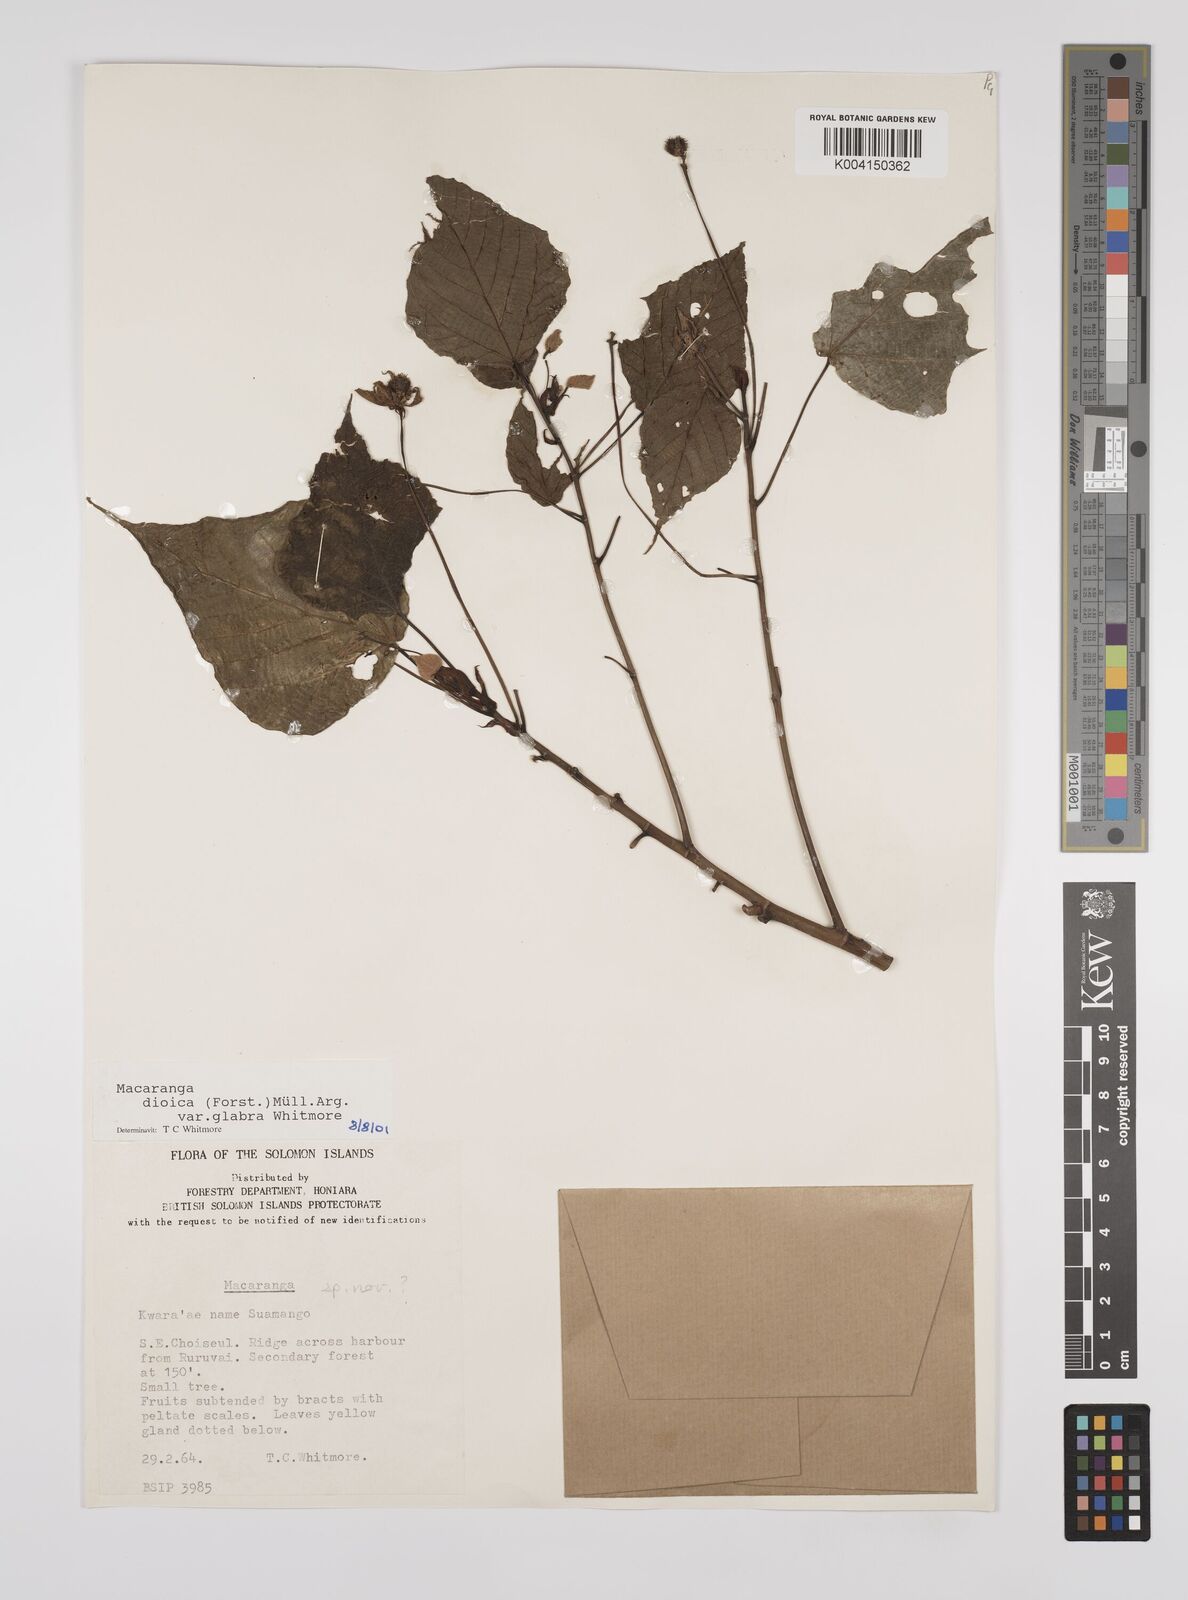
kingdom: Plantae
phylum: Tracheophyta
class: Magnoliopsida
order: Malpighiales
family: Euphorbiaceae
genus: Macaranga
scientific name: Macaranga dioica
